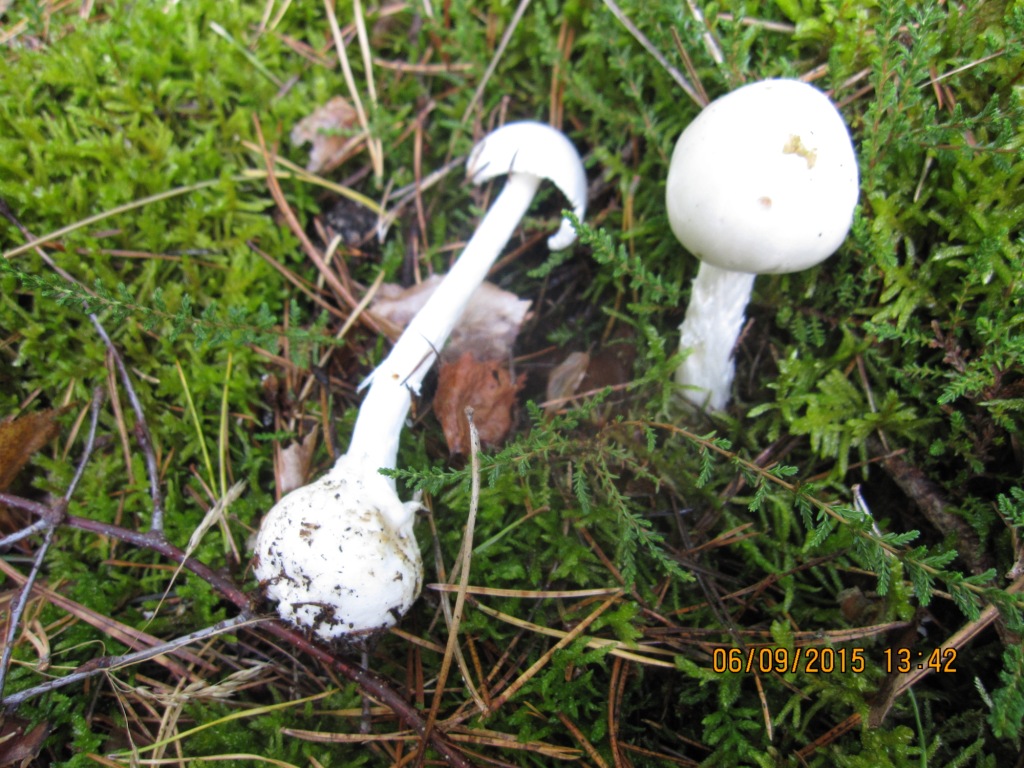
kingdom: Fungi
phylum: Basidiomycota
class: Agaricomycetes
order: Agaricales
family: Amanitaceae
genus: Amanita
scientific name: Amanita virosa
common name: snehvid fluesvamp
